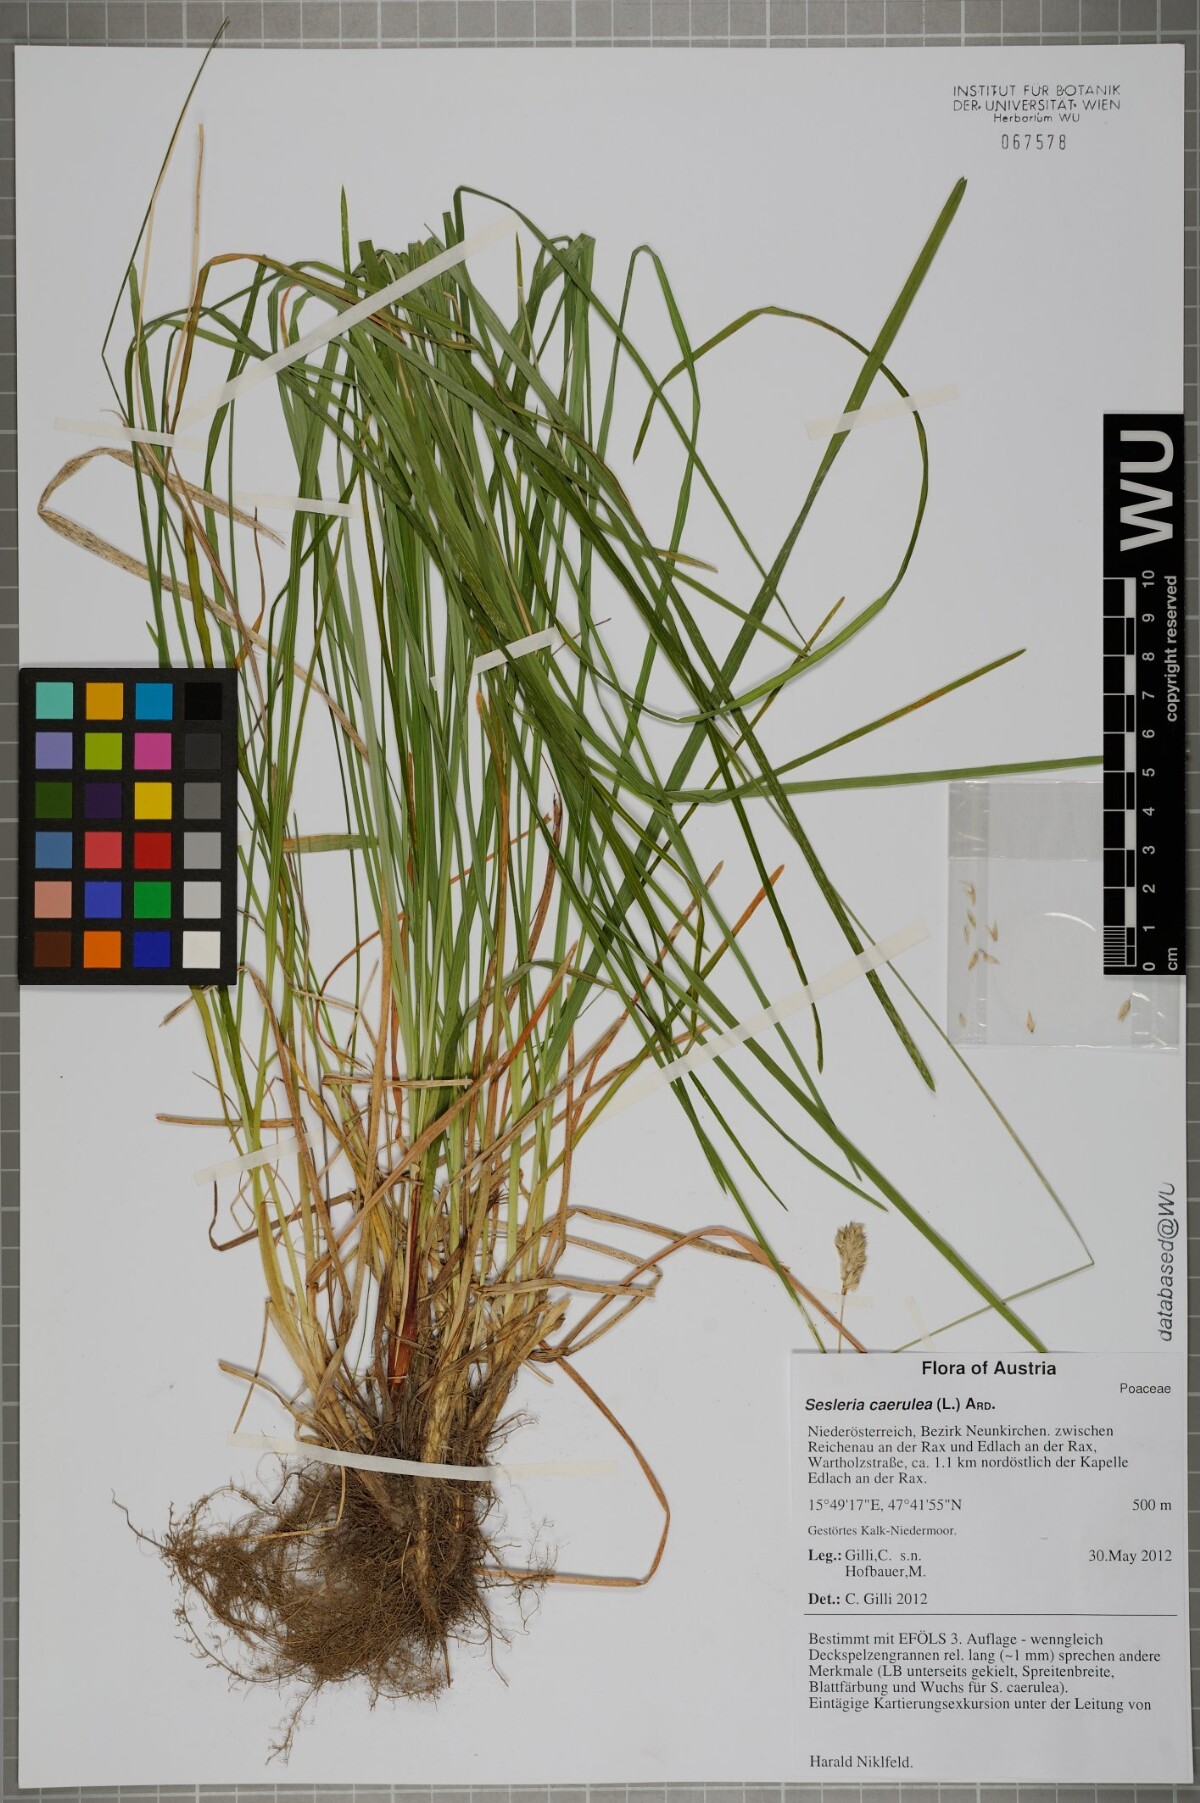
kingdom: Plantae
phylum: Tracheophyta
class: Liliopsida
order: Poales
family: Poaceae
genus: Sesleria
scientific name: Sesleria caerulea
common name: Blue moor-grass
